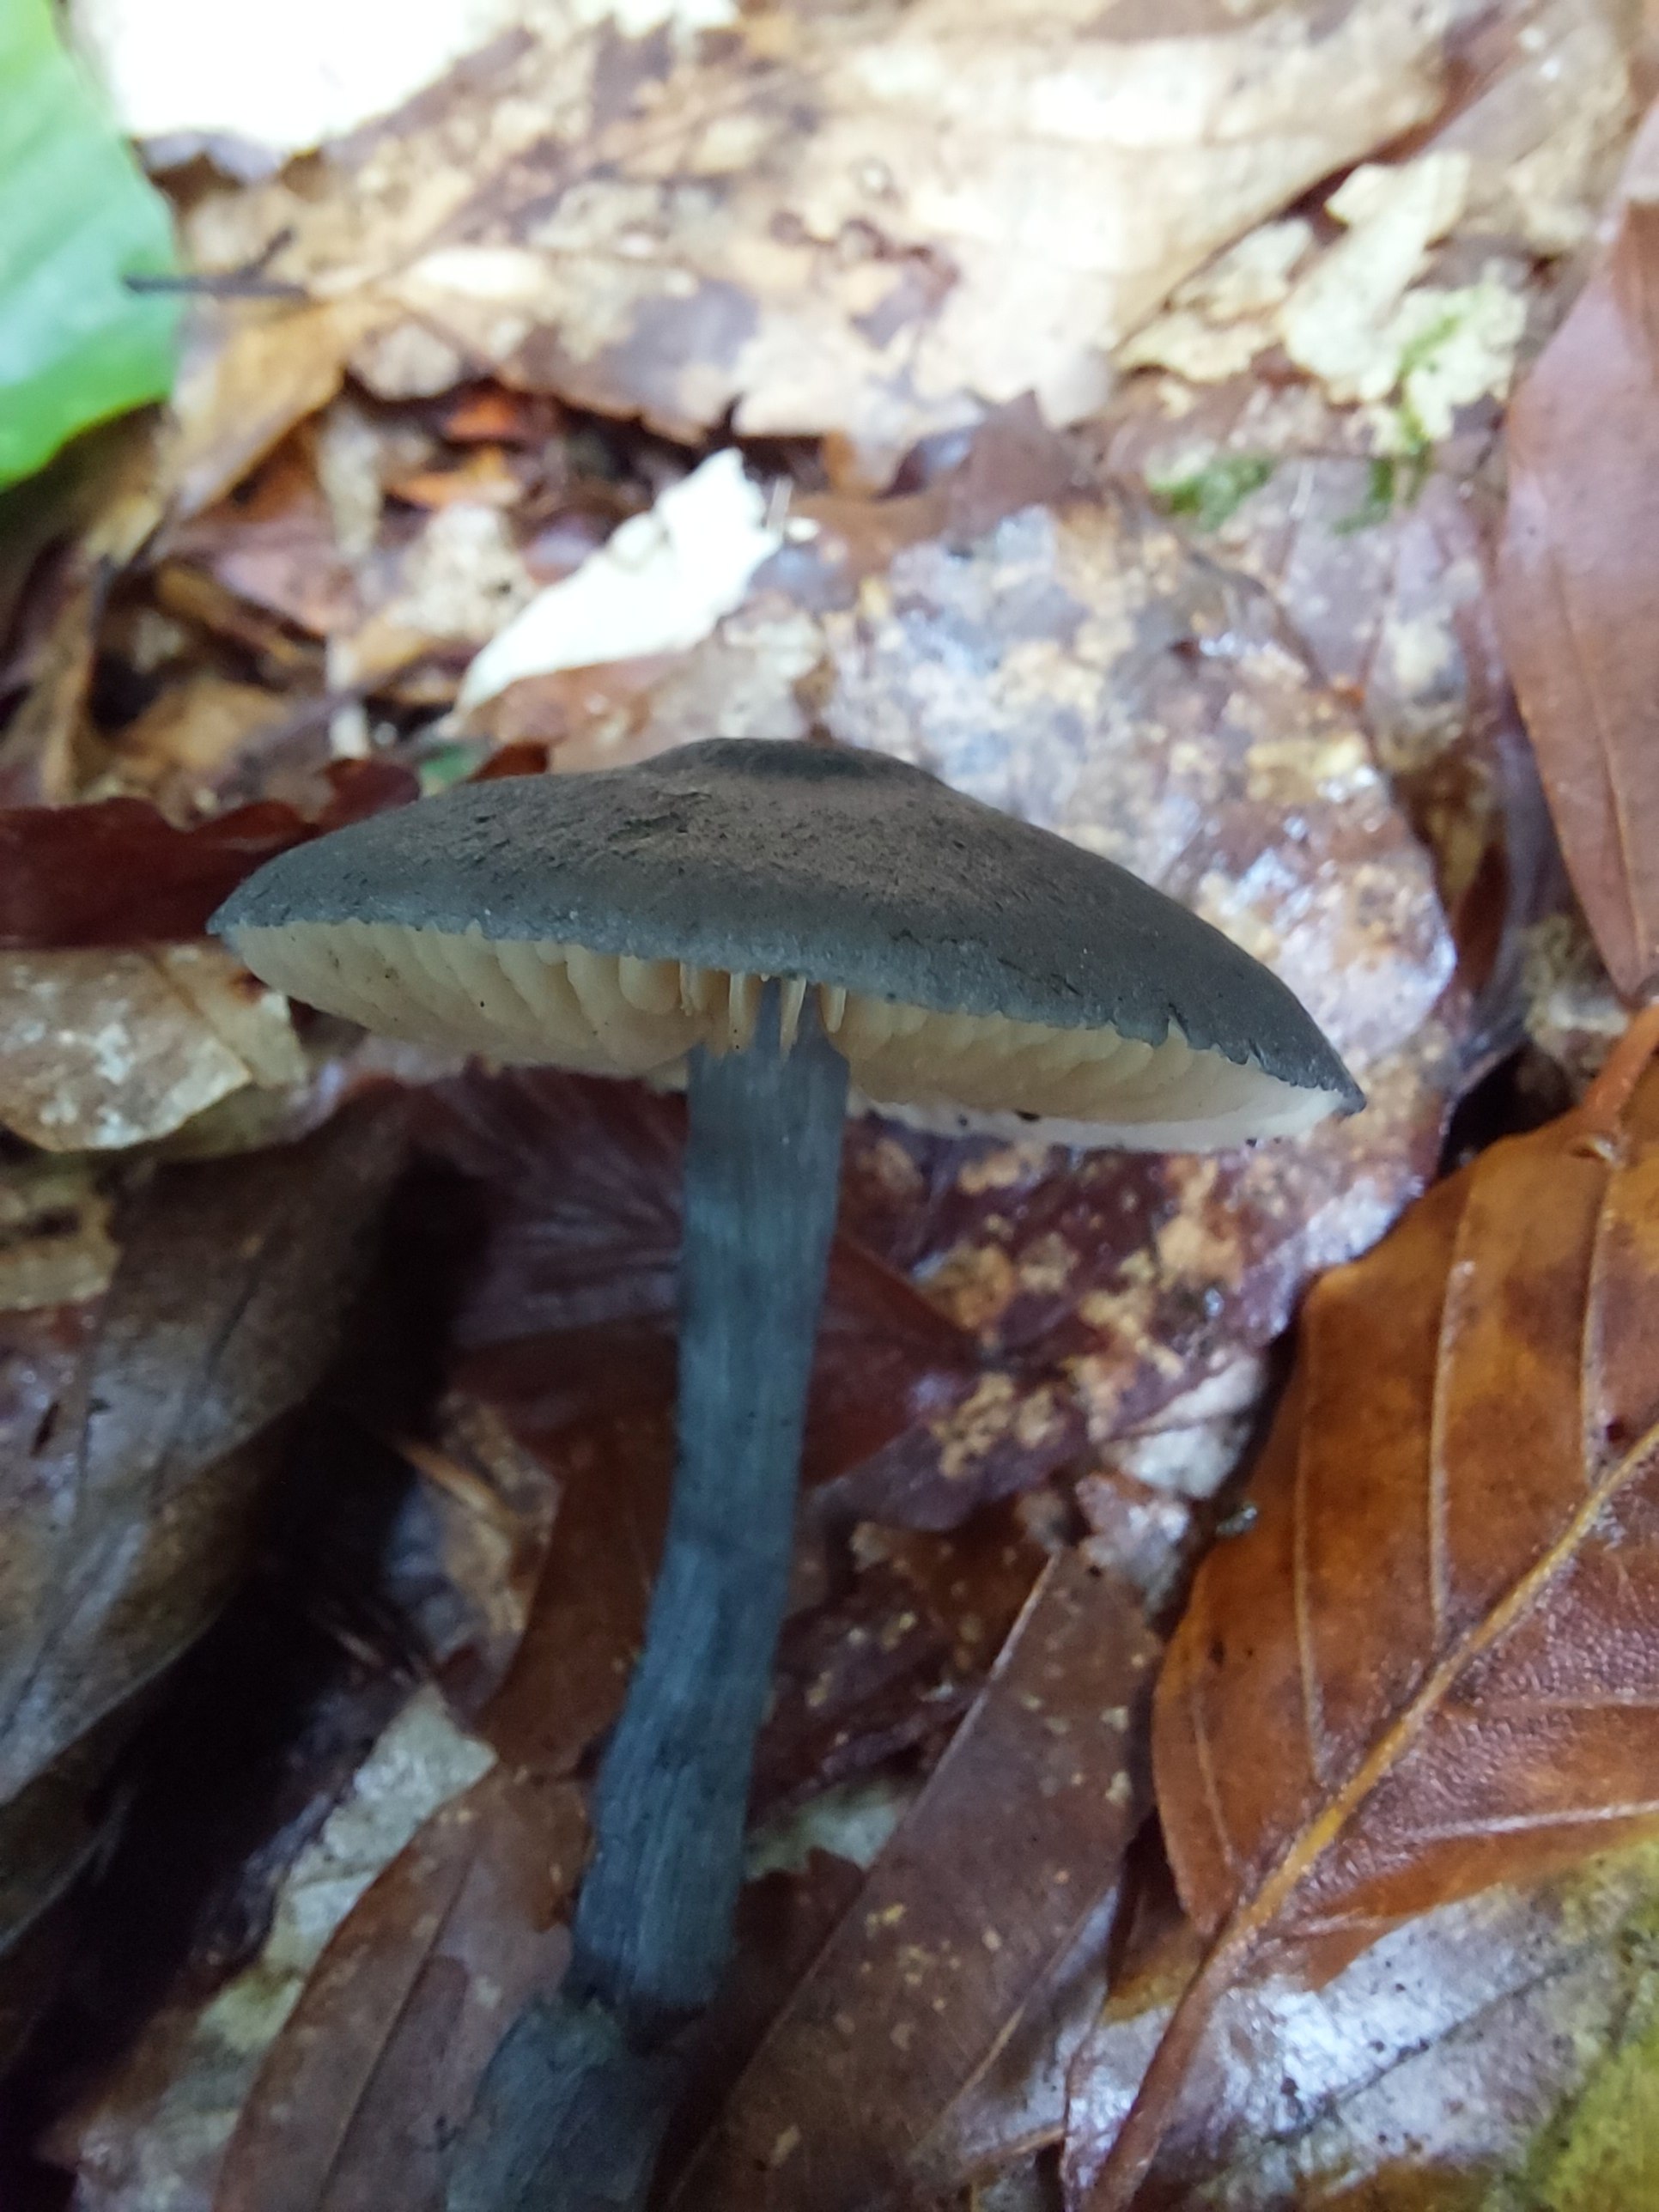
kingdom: Fungi
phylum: Basidiomycota
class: Agaricomycetes
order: Agaricales
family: Entolomataceae
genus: Entocybe
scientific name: Entocybe nitida
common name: stålblå rødblad
